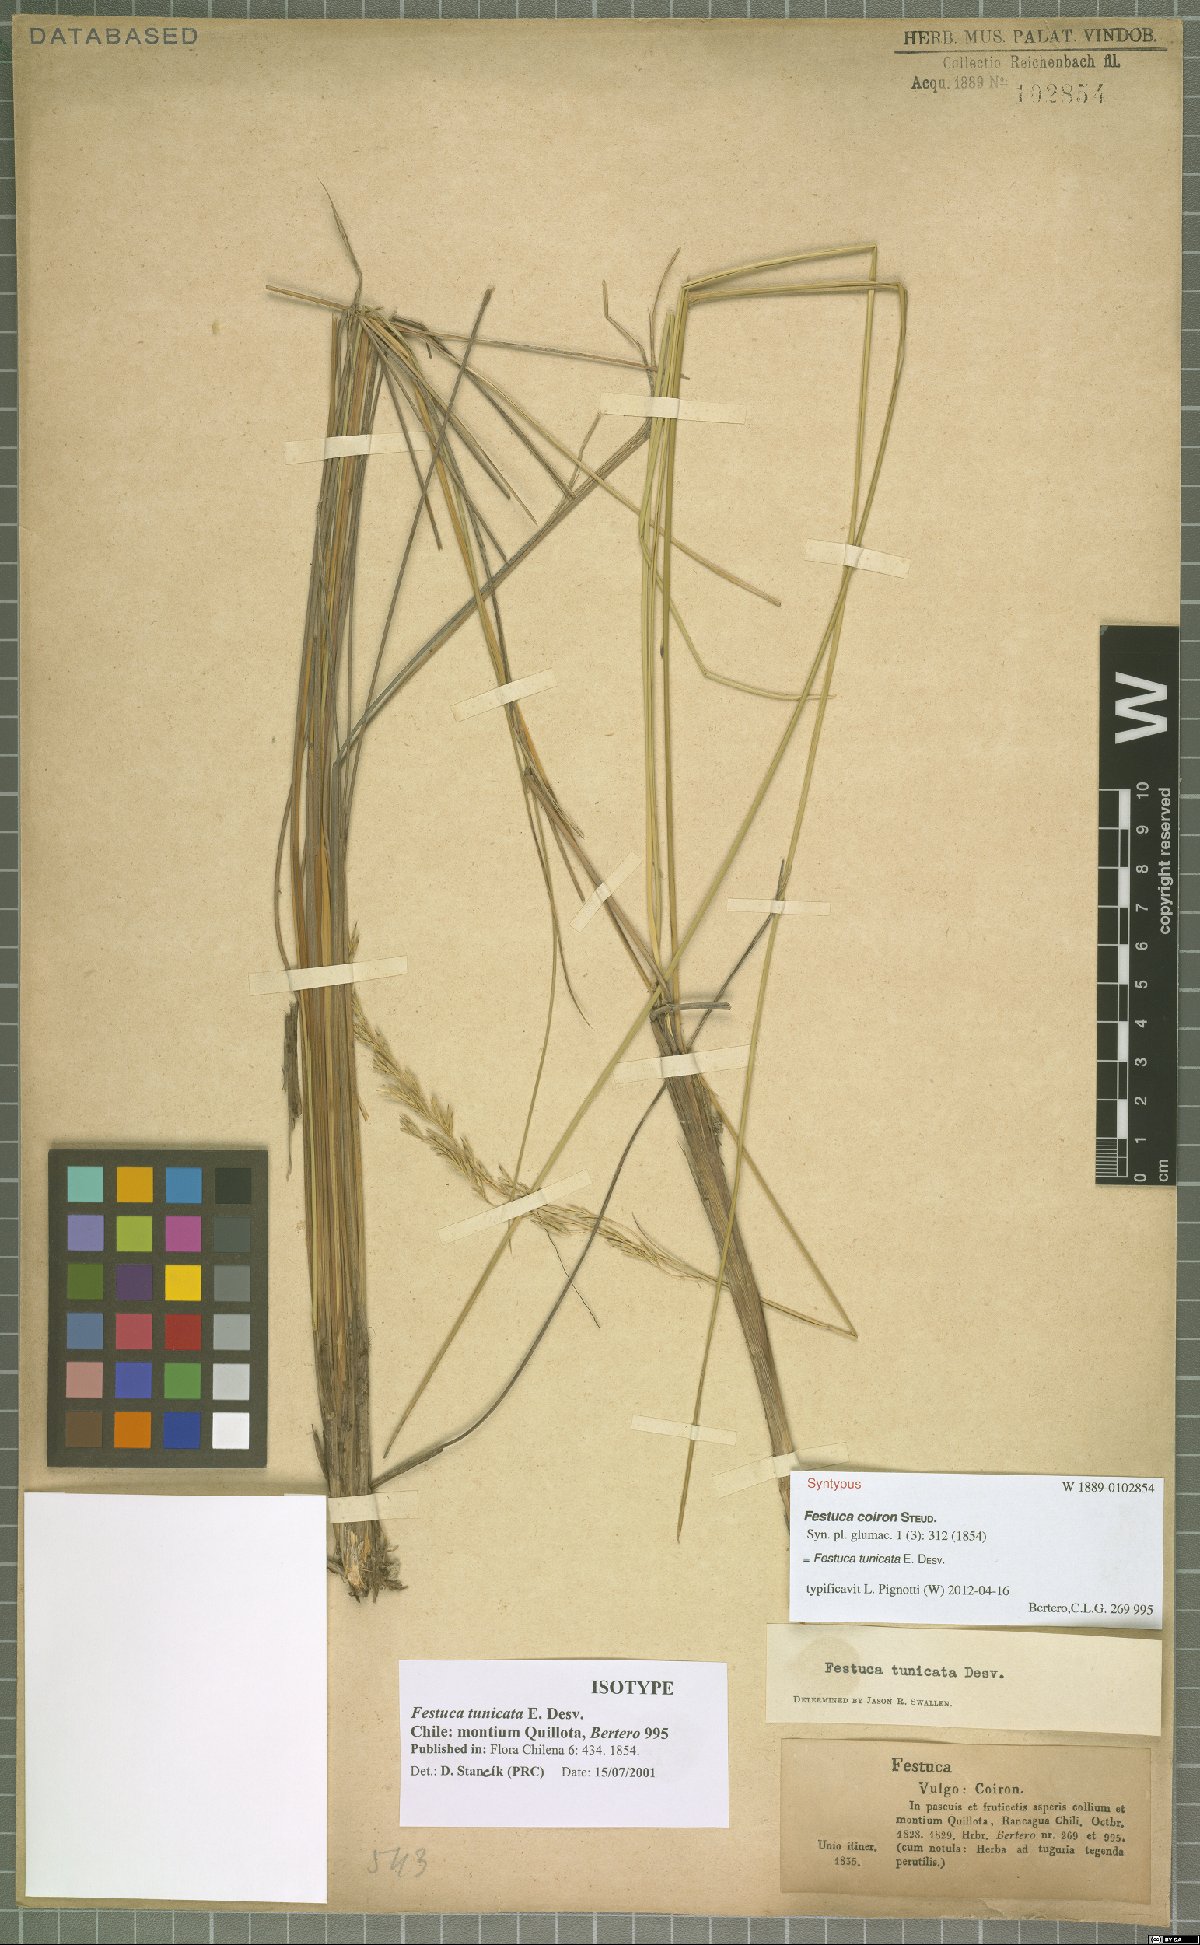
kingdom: Plantae
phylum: Tracheophyta
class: Liliopsida
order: Poales
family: Poaceae
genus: Festuca
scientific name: Festuca acanthophylla
